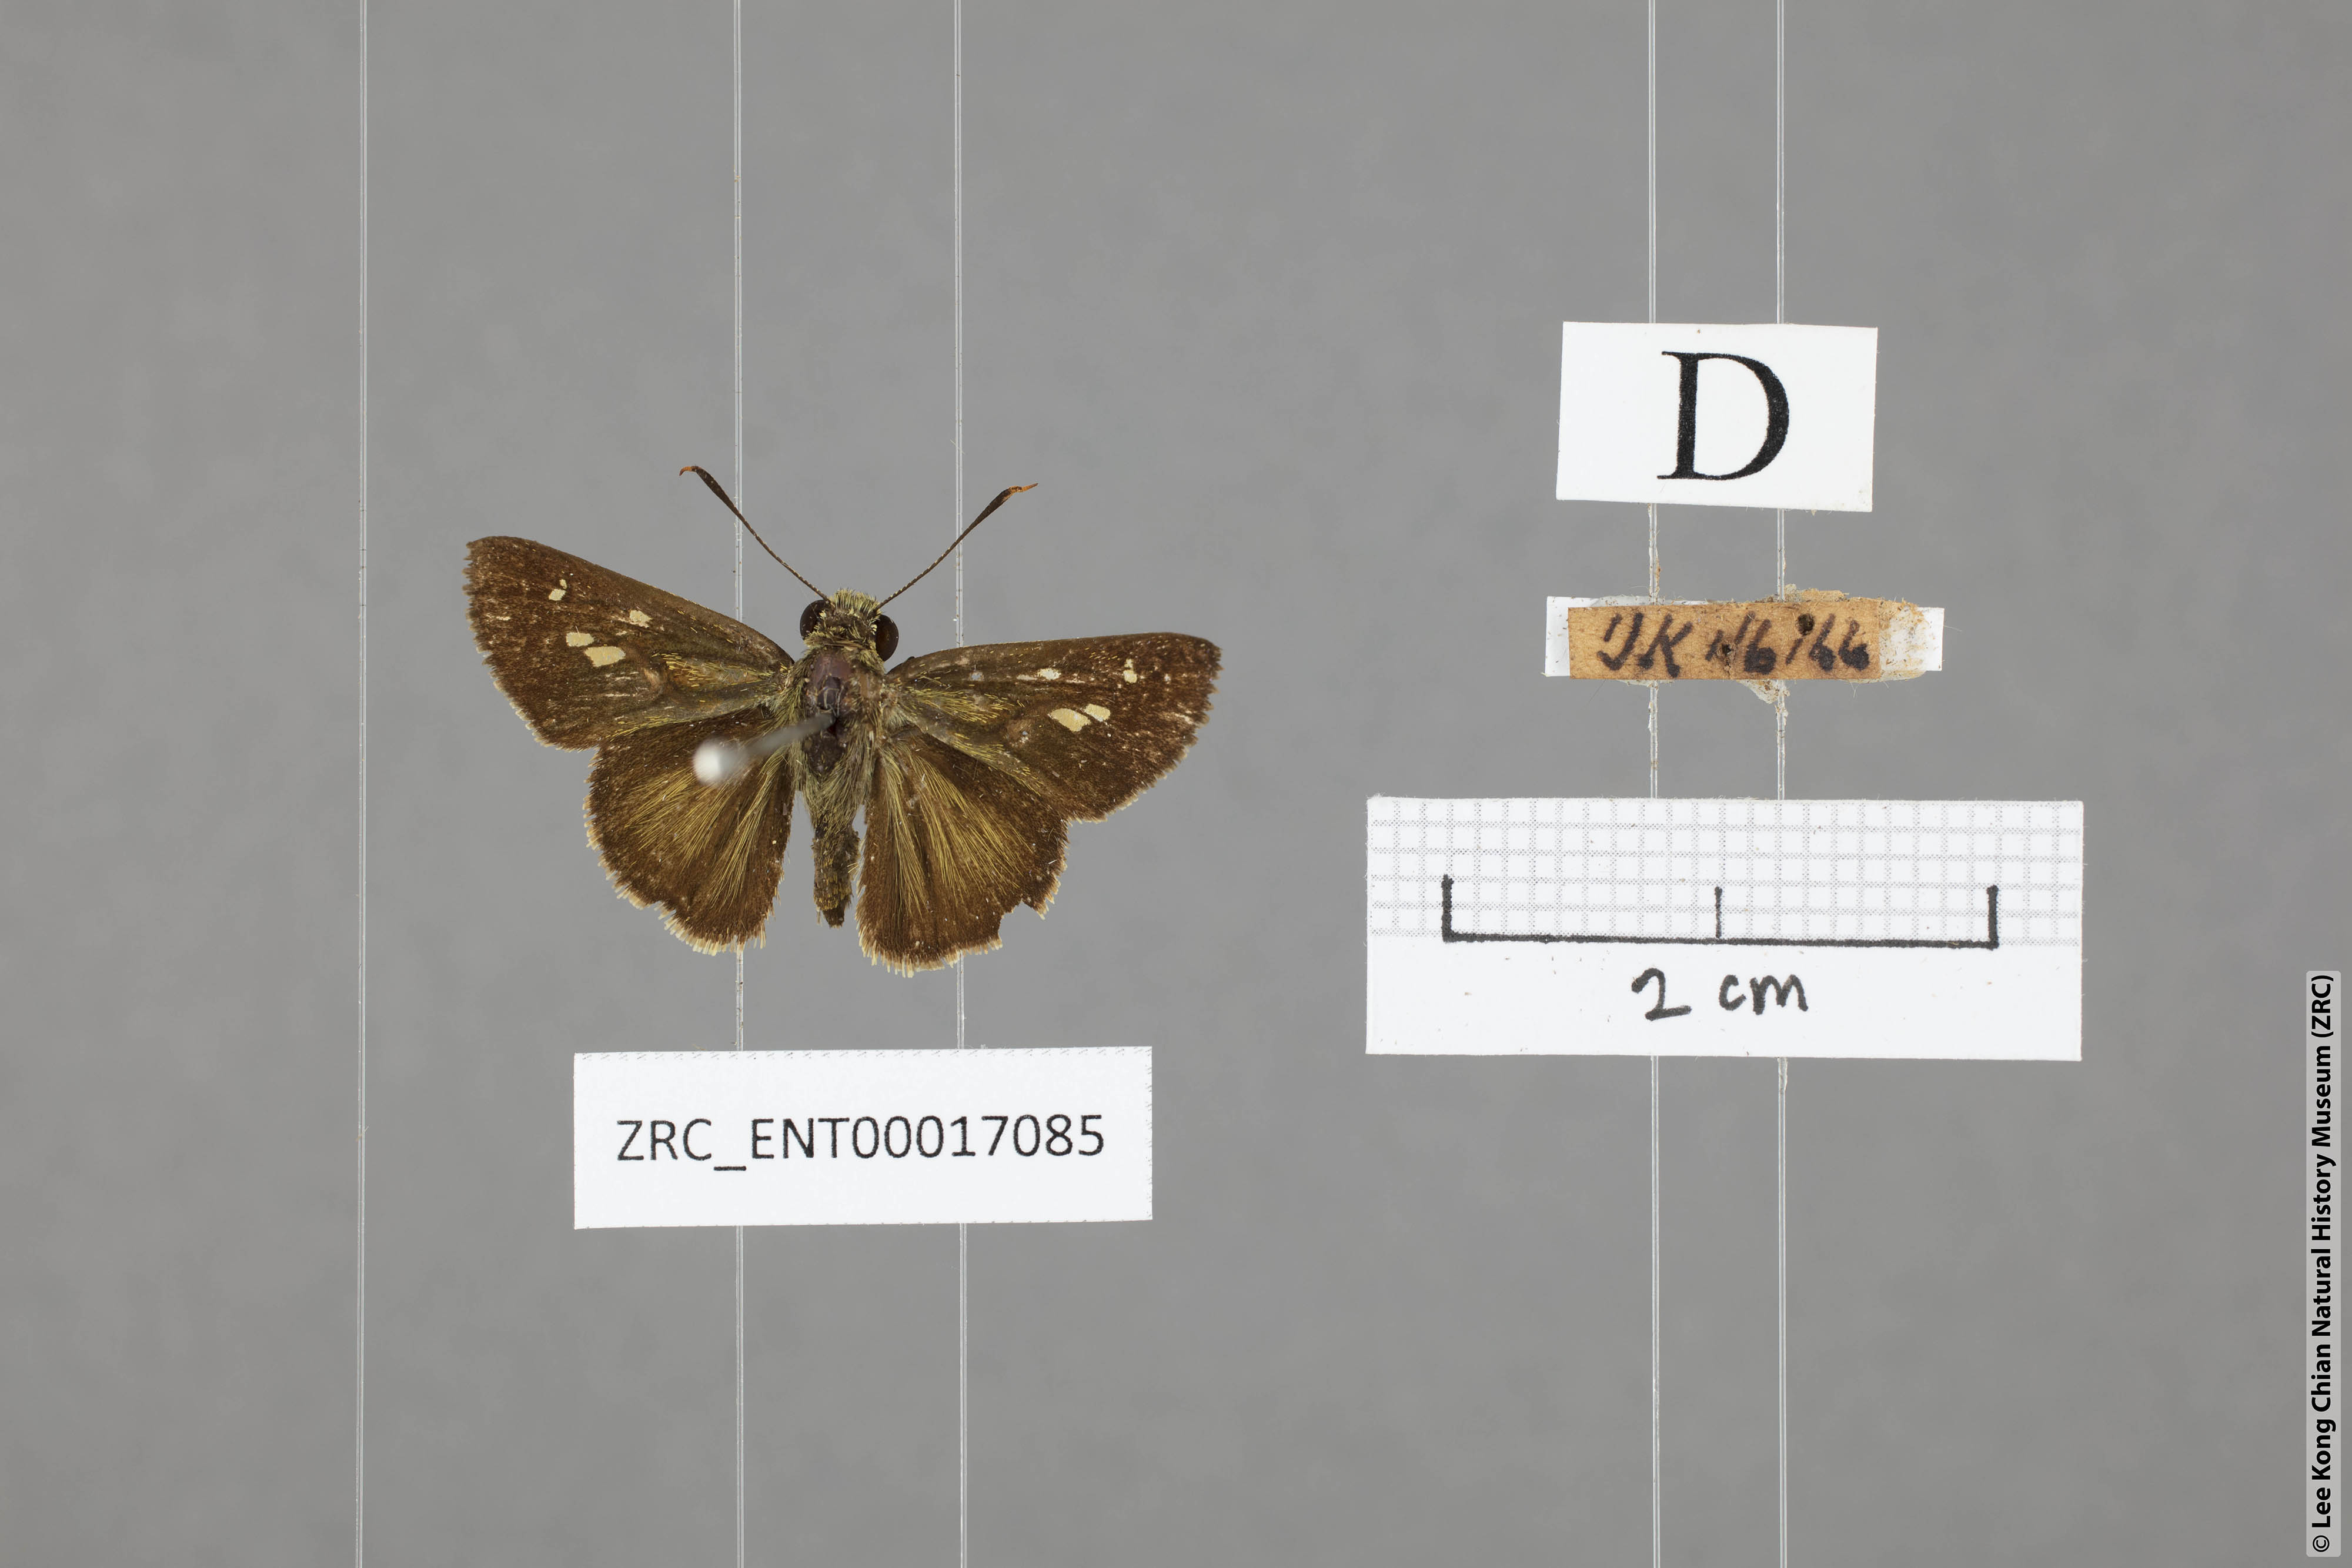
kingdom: Animalia
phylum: Arthropoda
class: Insecta
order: Lepidoptera
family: Hesperiidae
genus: Halpe
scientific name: Halpe veluvana
